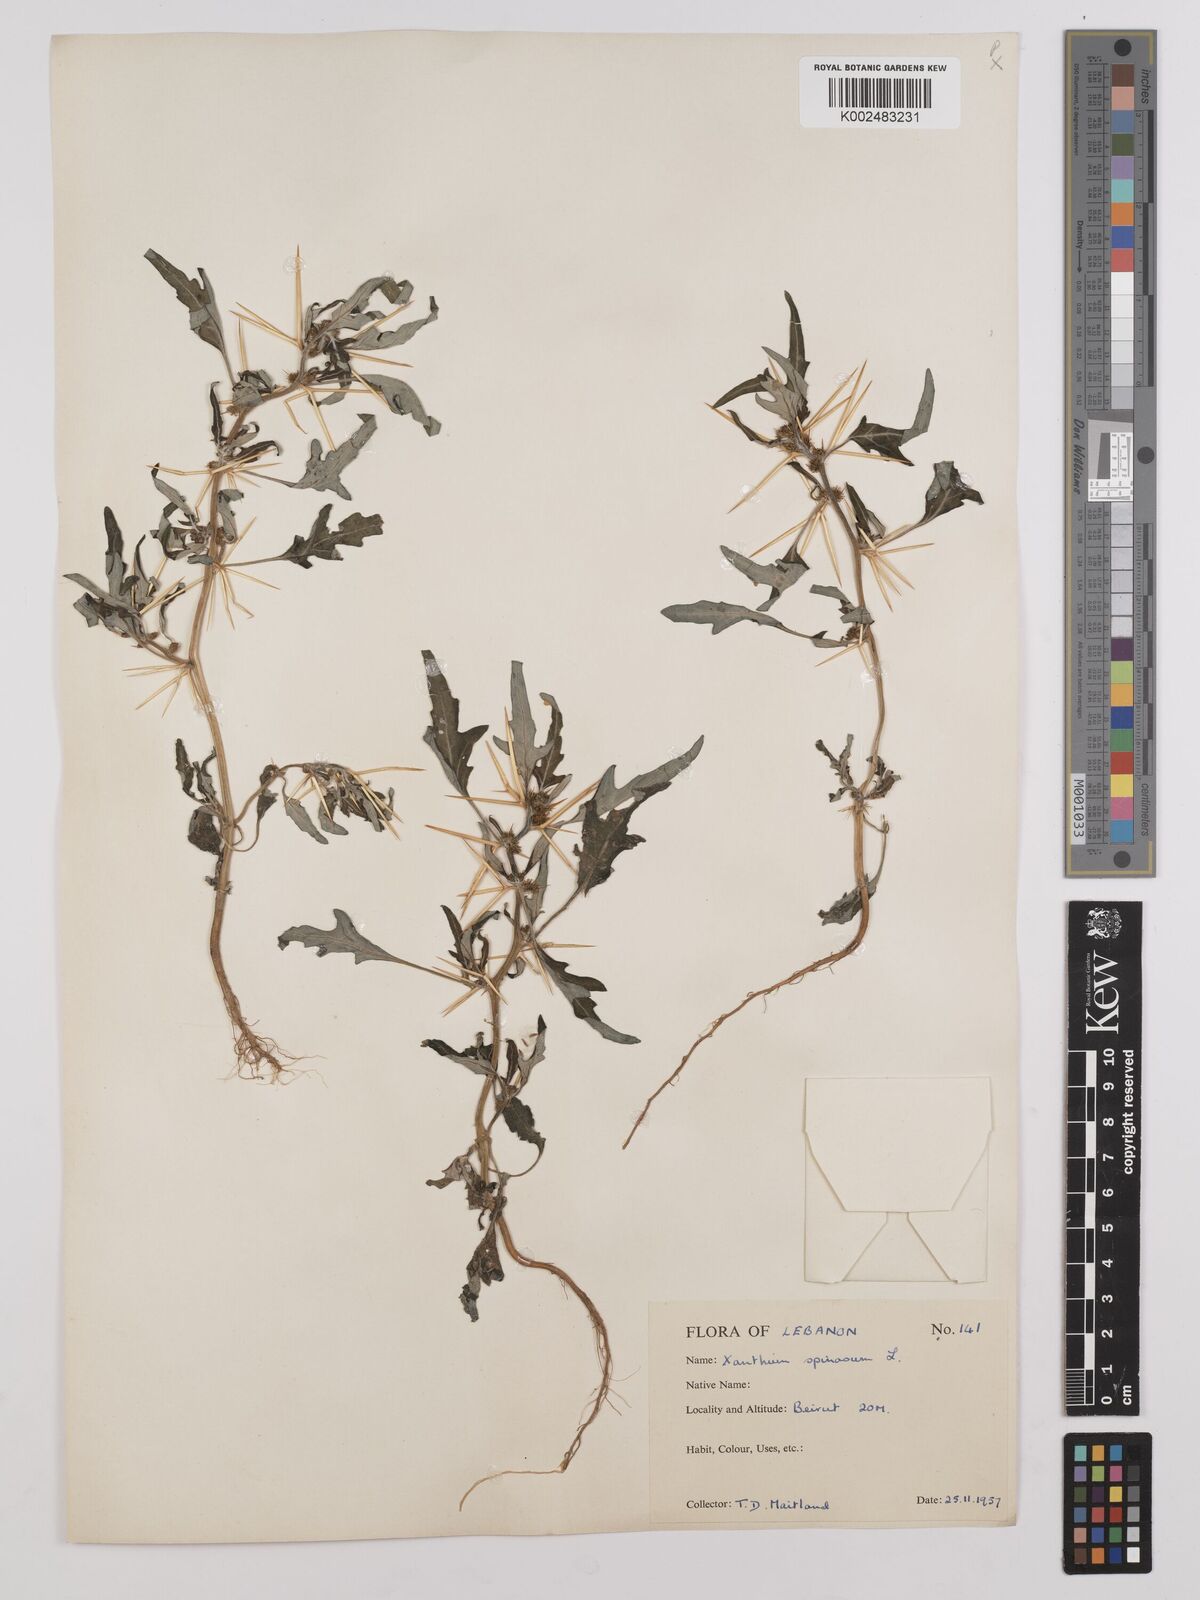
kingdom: Plantae
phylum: Tracheophyta
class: Magnoliopsida
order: Asterales
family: Asteraceae
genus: Xanthium
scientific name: Xanthium spinosum
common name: Spiny cocklebur
